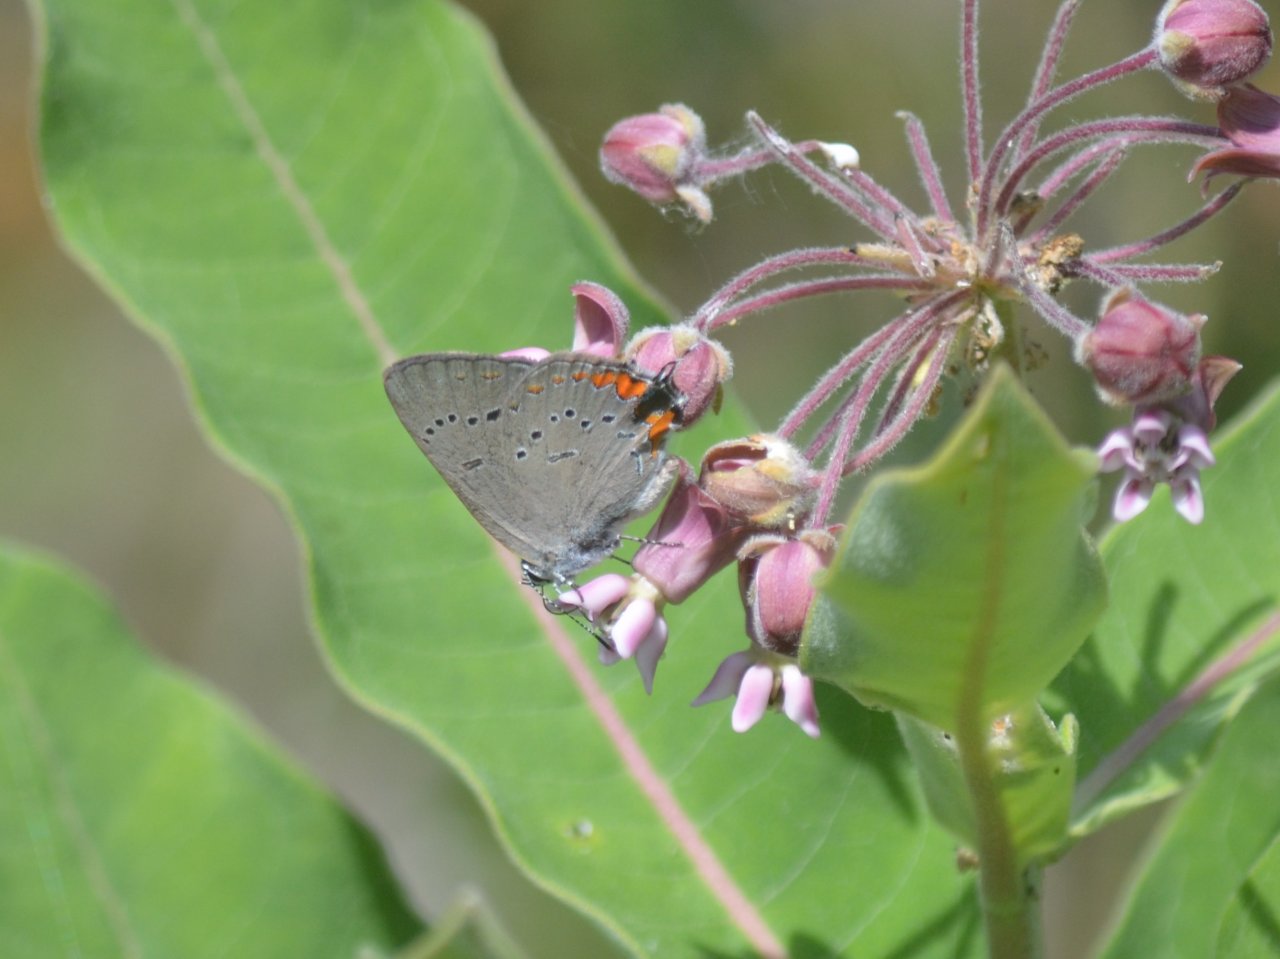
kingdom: Animalia
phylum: Arthropoda
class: Insecta
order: Lepidoptera
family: Lycaenidae
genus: Strymon
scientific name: Strymon acadica
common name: Acadian Hairstreak
